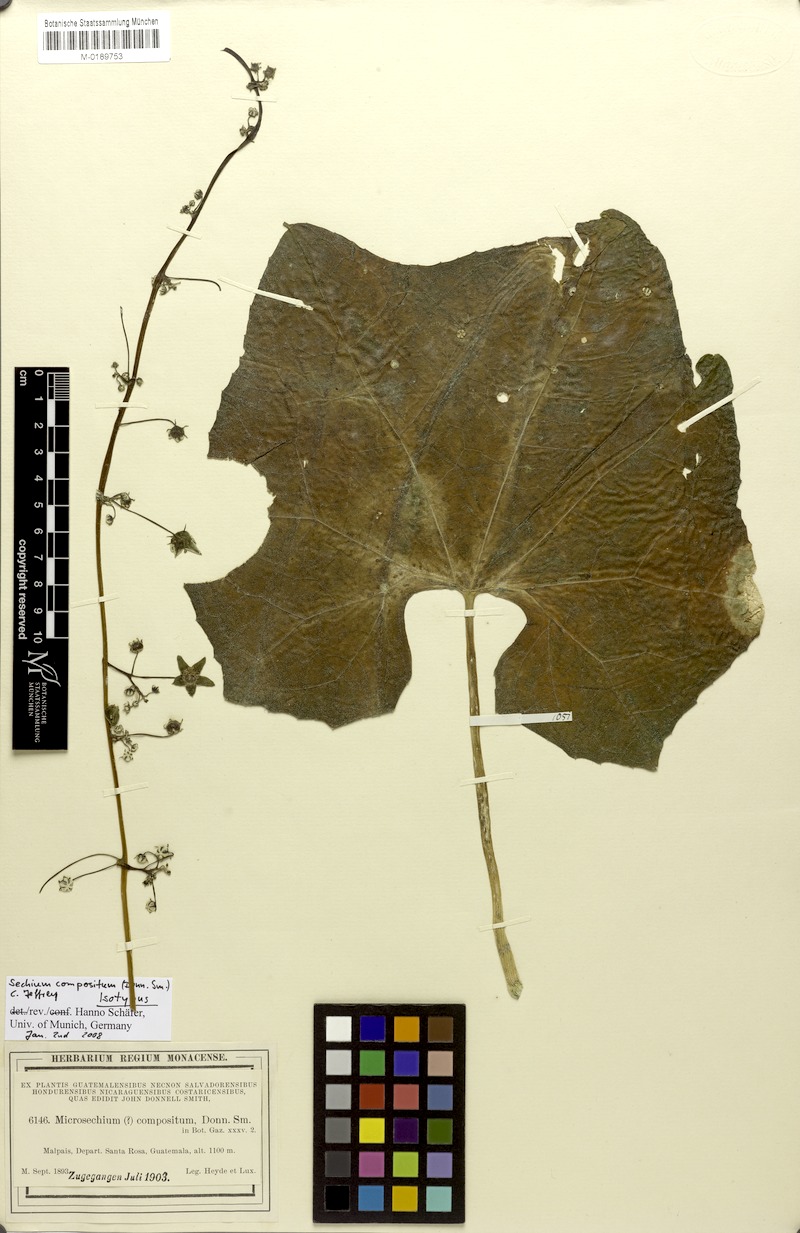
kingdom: Plantae
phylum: Tracheophyta
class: Magnoliopsida
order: Cucurbitales
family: Cucurbitaceae
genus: Sechium
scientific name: Sechium compositum
